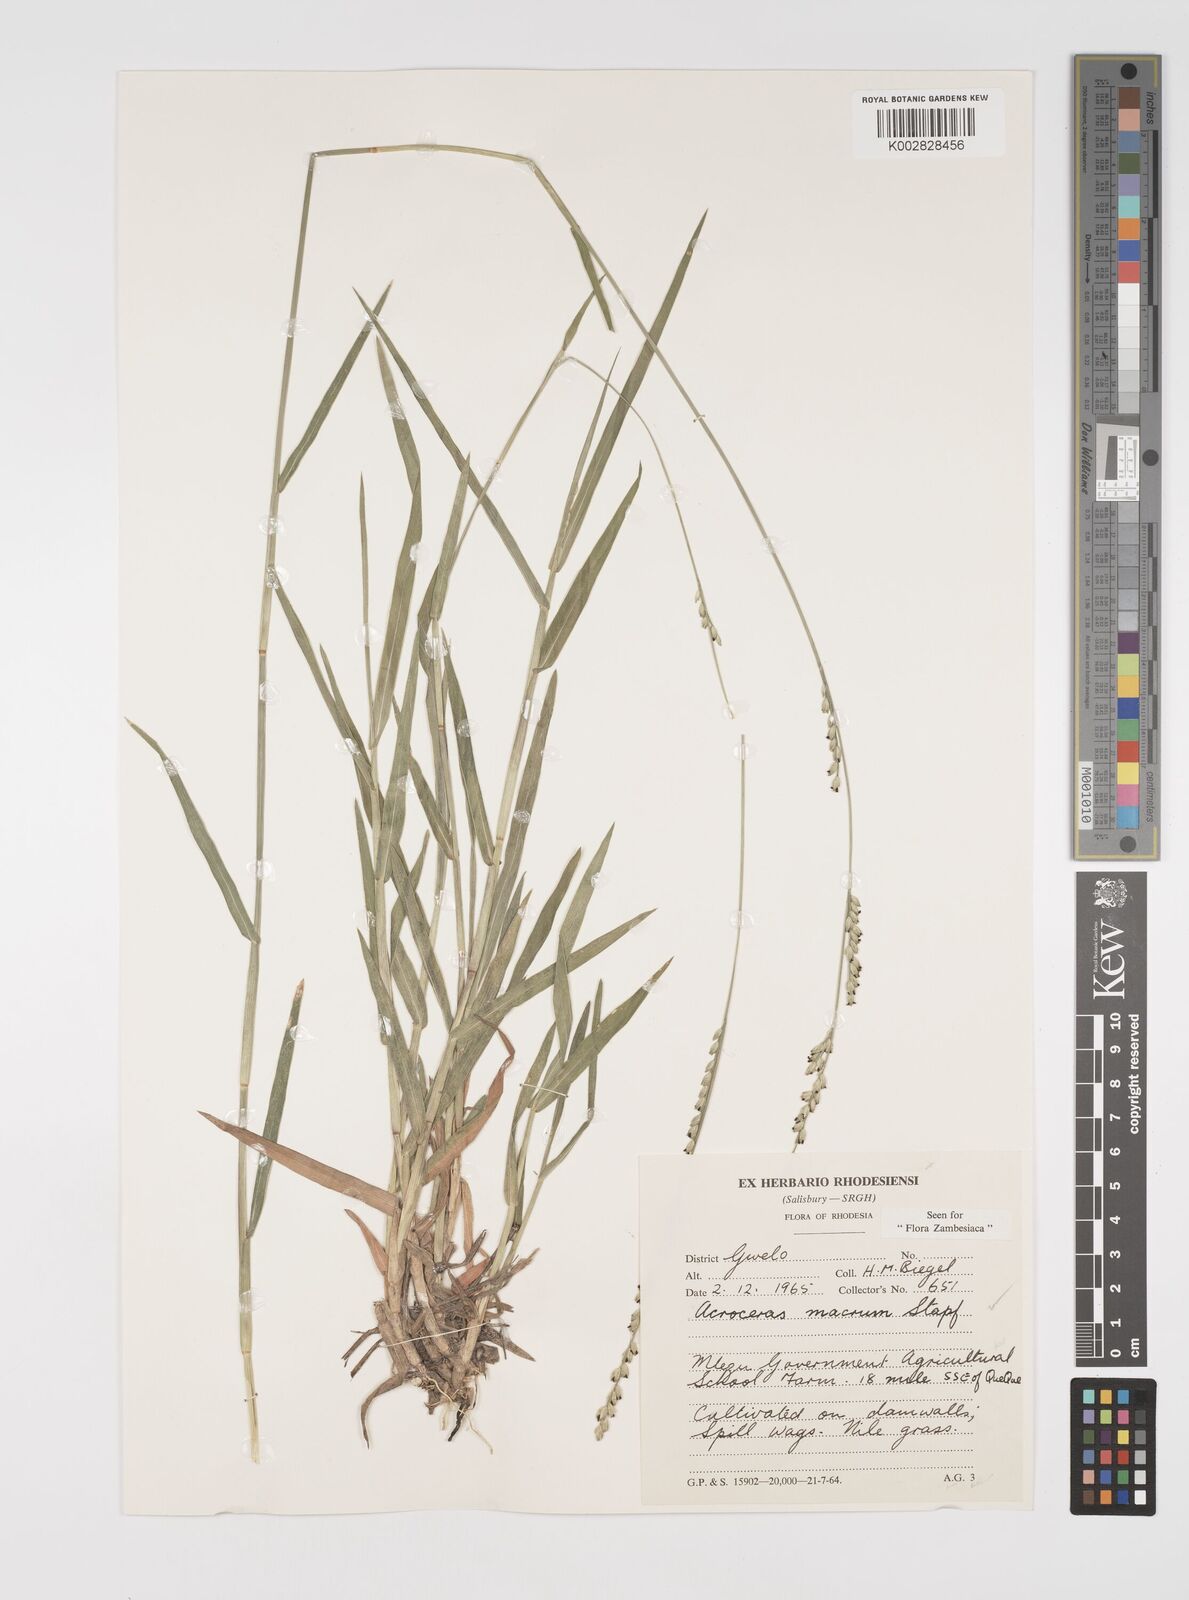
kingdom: Plantae
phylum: Tracheophyta
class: Liliopsida
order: Poales
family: Poaceae
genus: Acroceras
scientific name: Acroceras macrum
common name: Nyl grass
